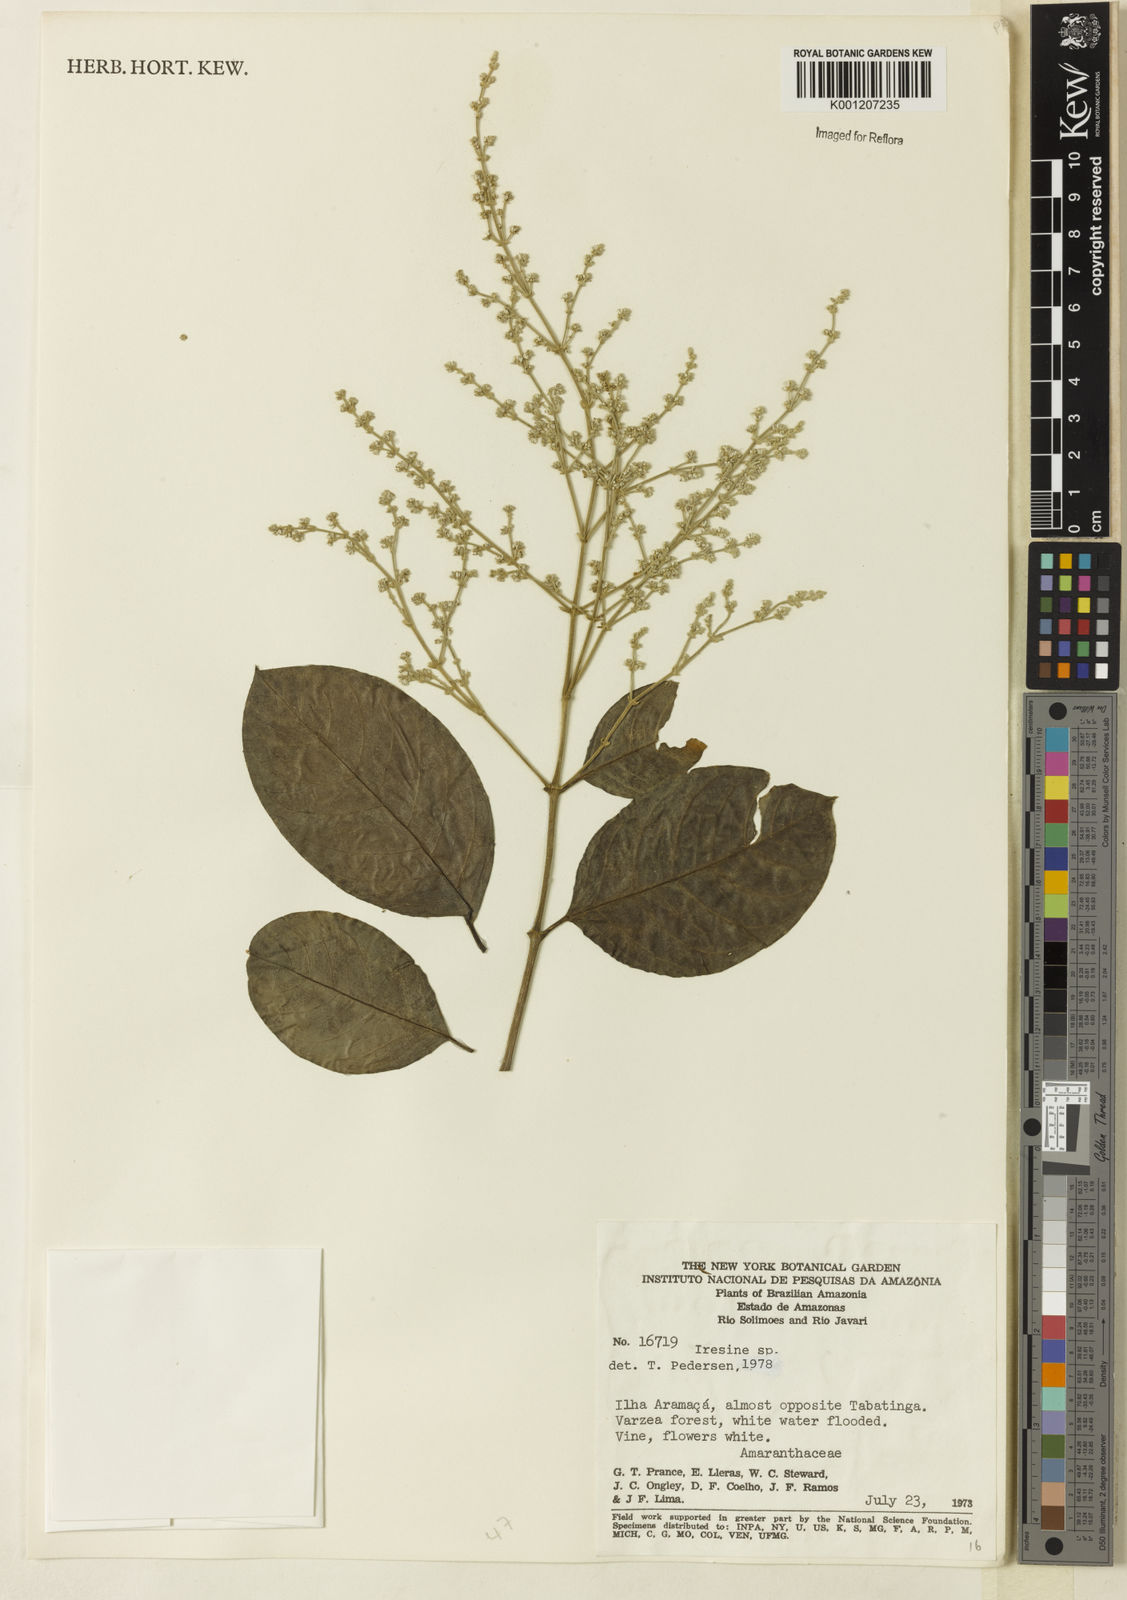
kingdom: Plantae
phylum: Tracheophyta
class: Magnoliopsida
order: Caryophyllales
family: Amaranthaceae
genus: Iresine
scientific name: Iresine
